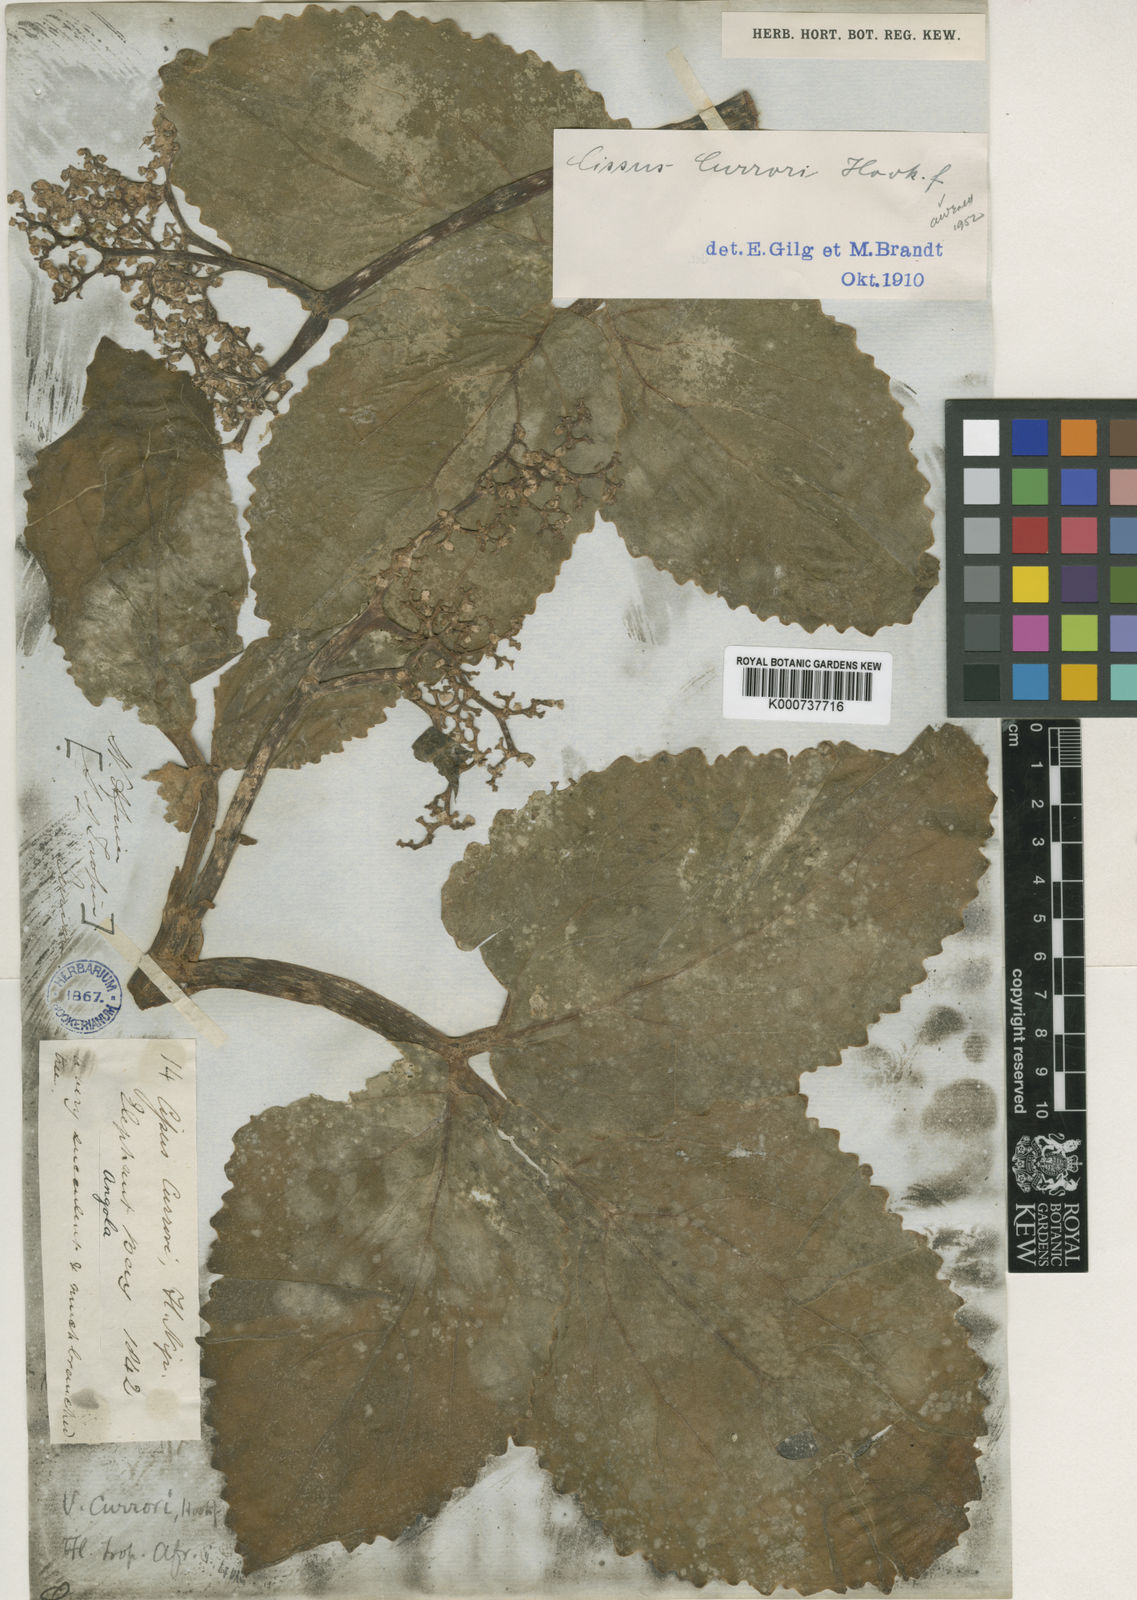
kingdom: Plantae
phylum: Tracheophyta
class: Magnoliopsida
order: Vitales
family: Vitaceae
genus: Cyphostemma
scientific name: Cyphostemma currorii
